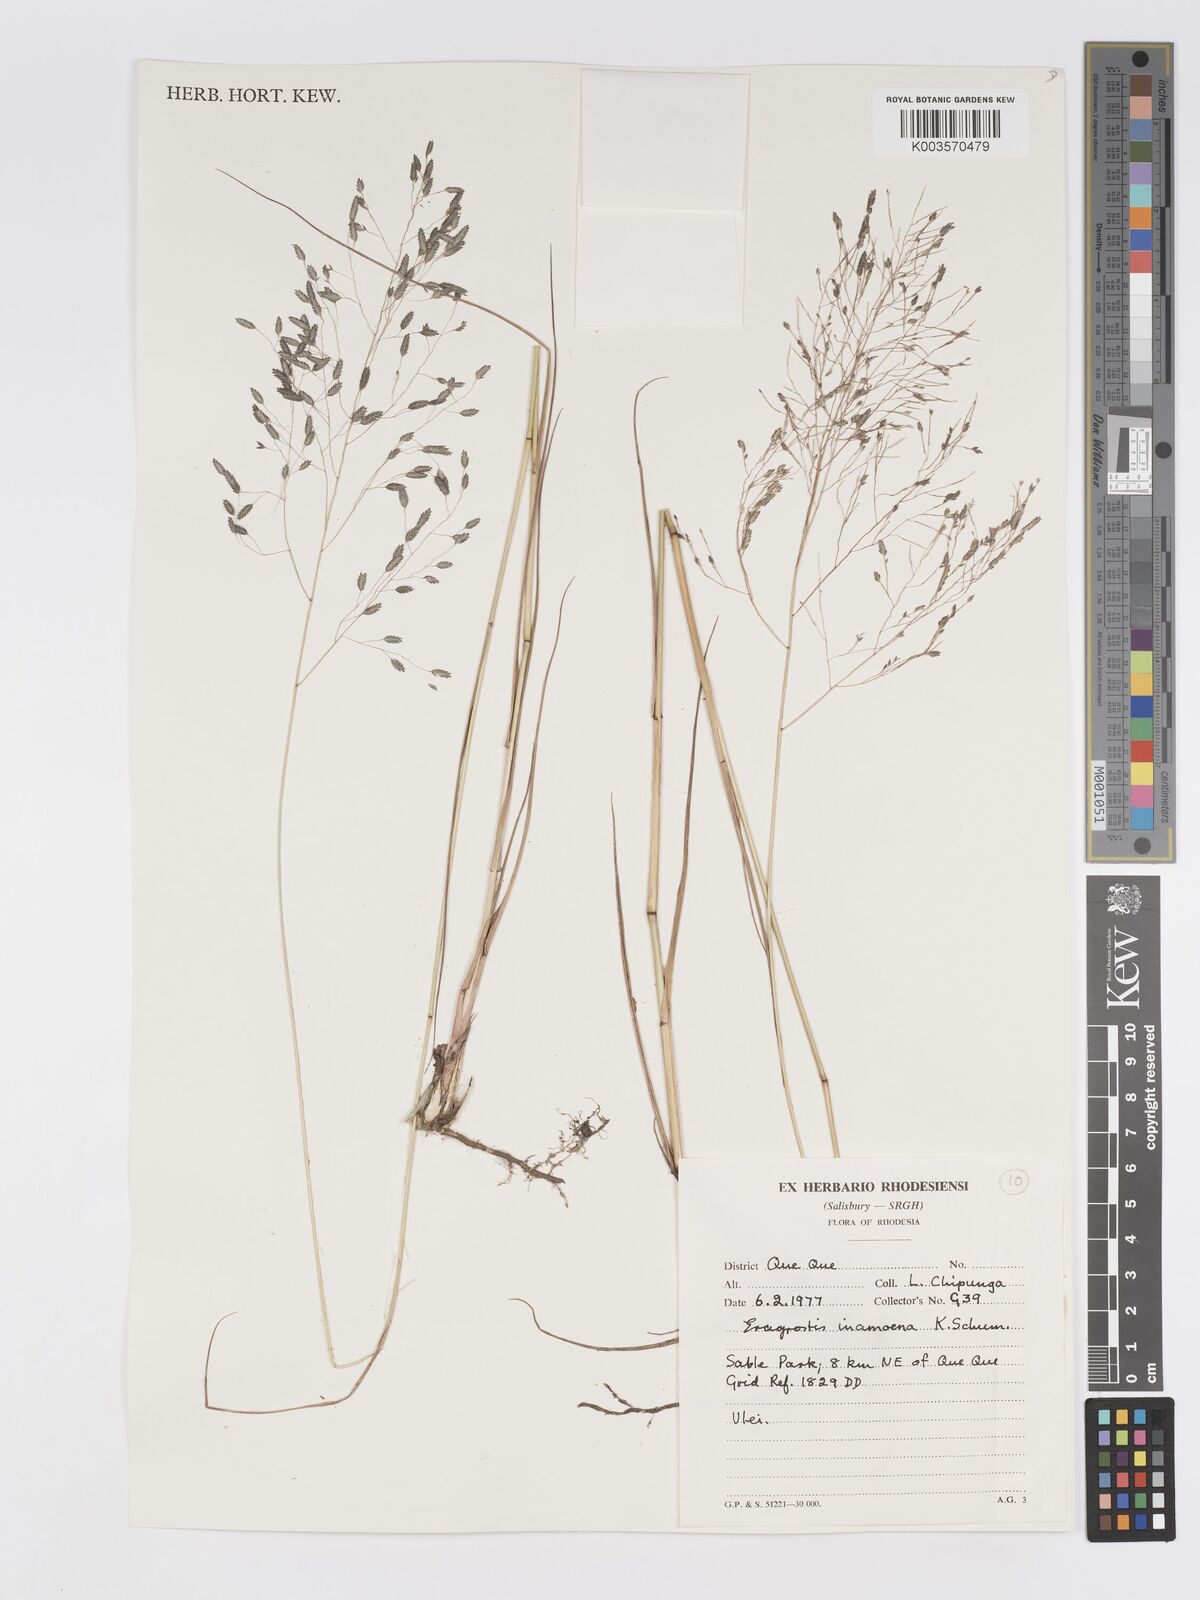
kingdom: Plantae
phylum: Tracheophyta
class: Liliopsida
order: Poales
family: Poaceae
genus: Eragrostis
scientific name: Eragrostis inamoena
